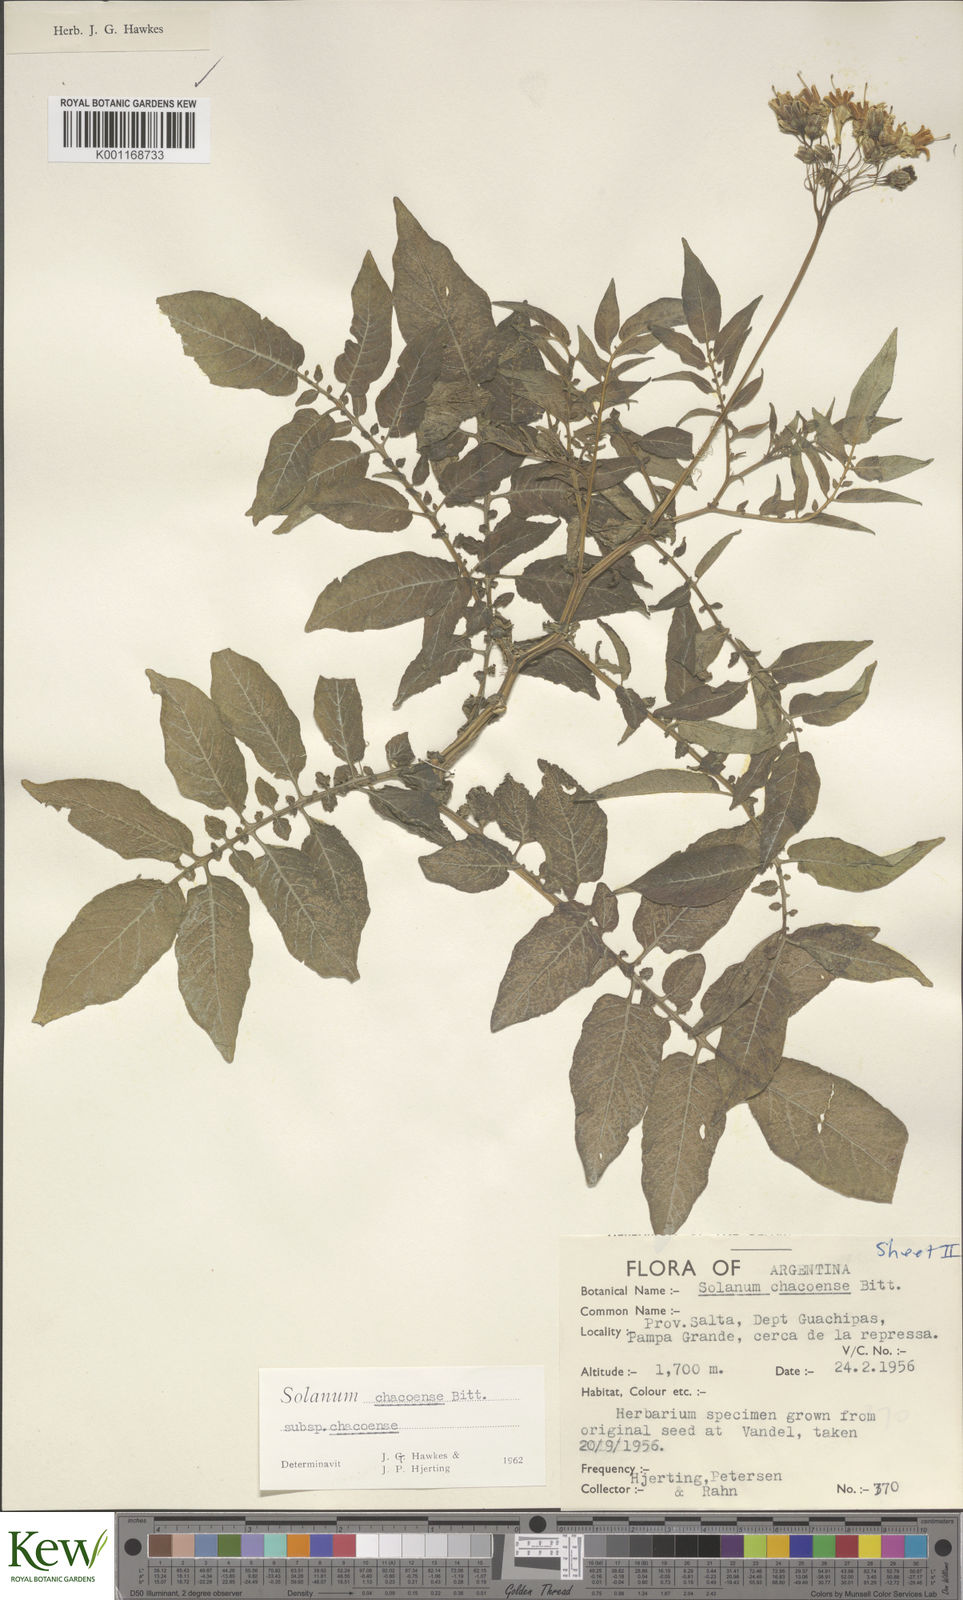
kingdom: Plantae
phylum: Tracheophyta
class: Magnoliopsida
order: Solanales
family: Solanaceae
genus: Solanum
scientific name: Solanum chacoense
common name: Chaco potato
